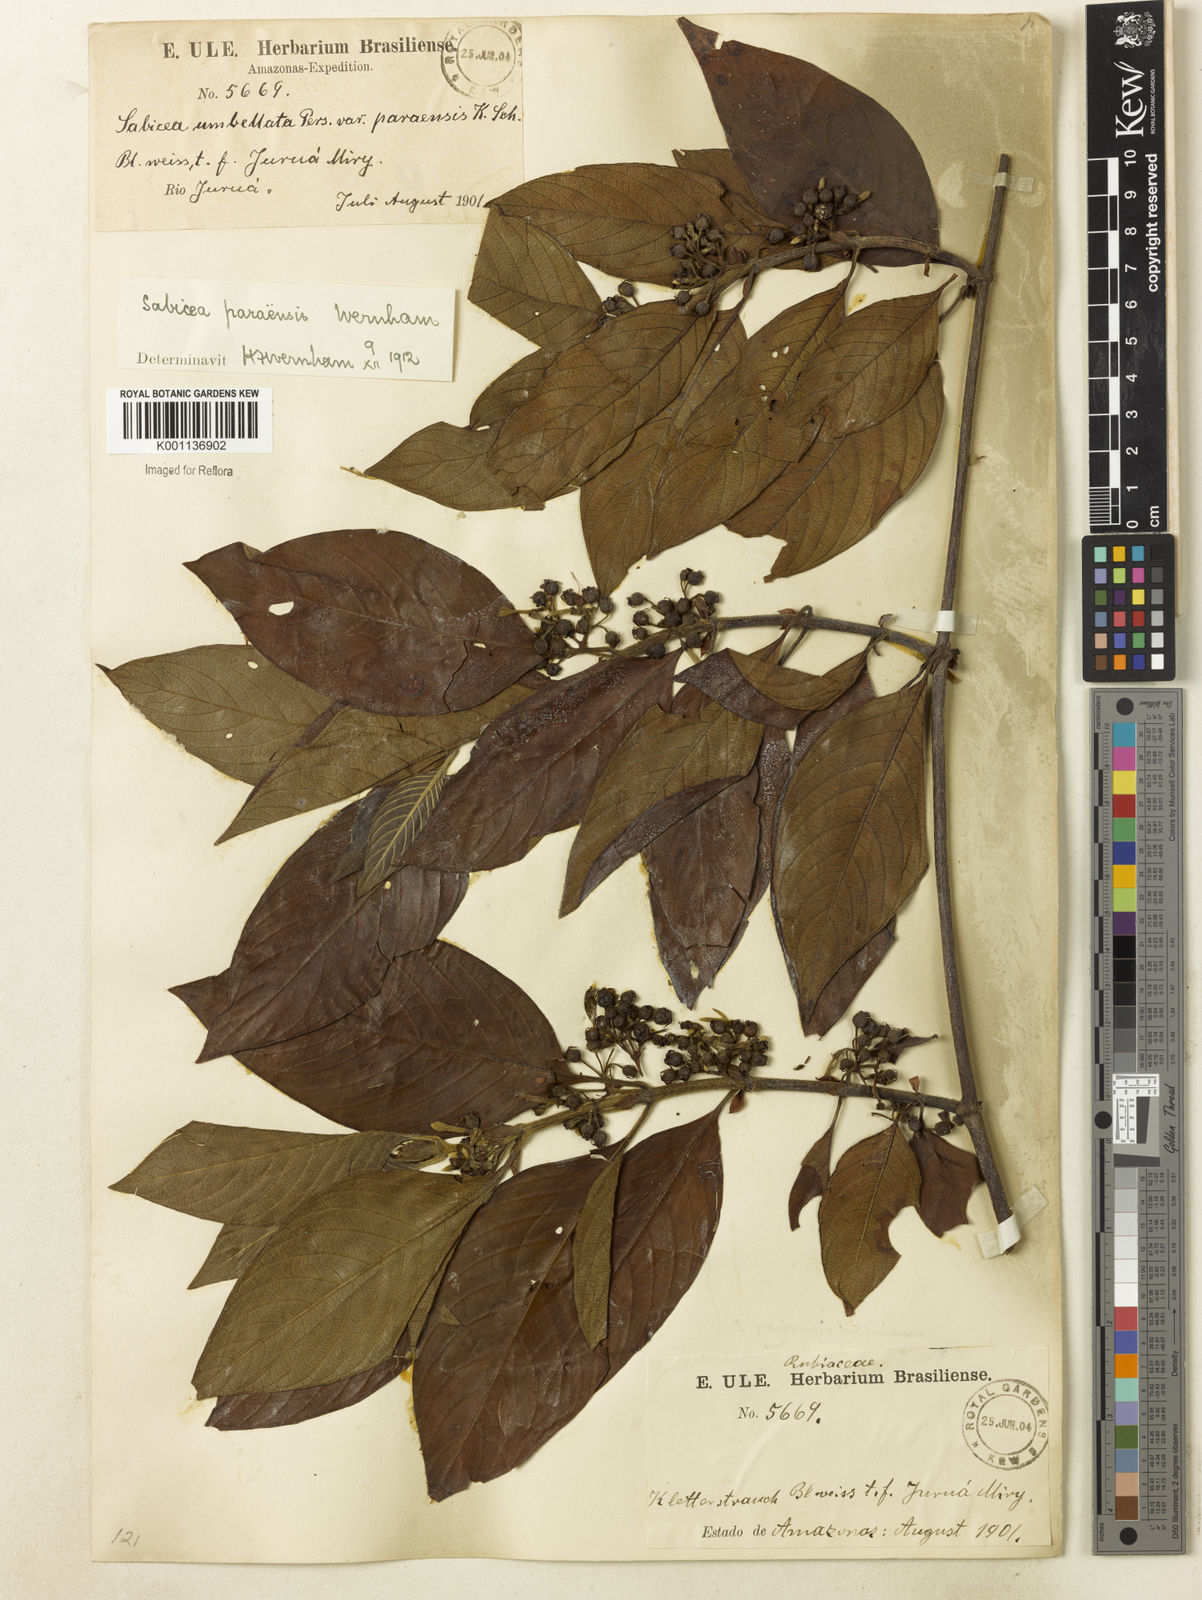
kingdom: Plantae
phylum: Tracheophyta
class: Magnoliopsida
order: Gentianales
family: Rubiaceae
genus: Sabicea
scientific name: Sabicea panamensis
